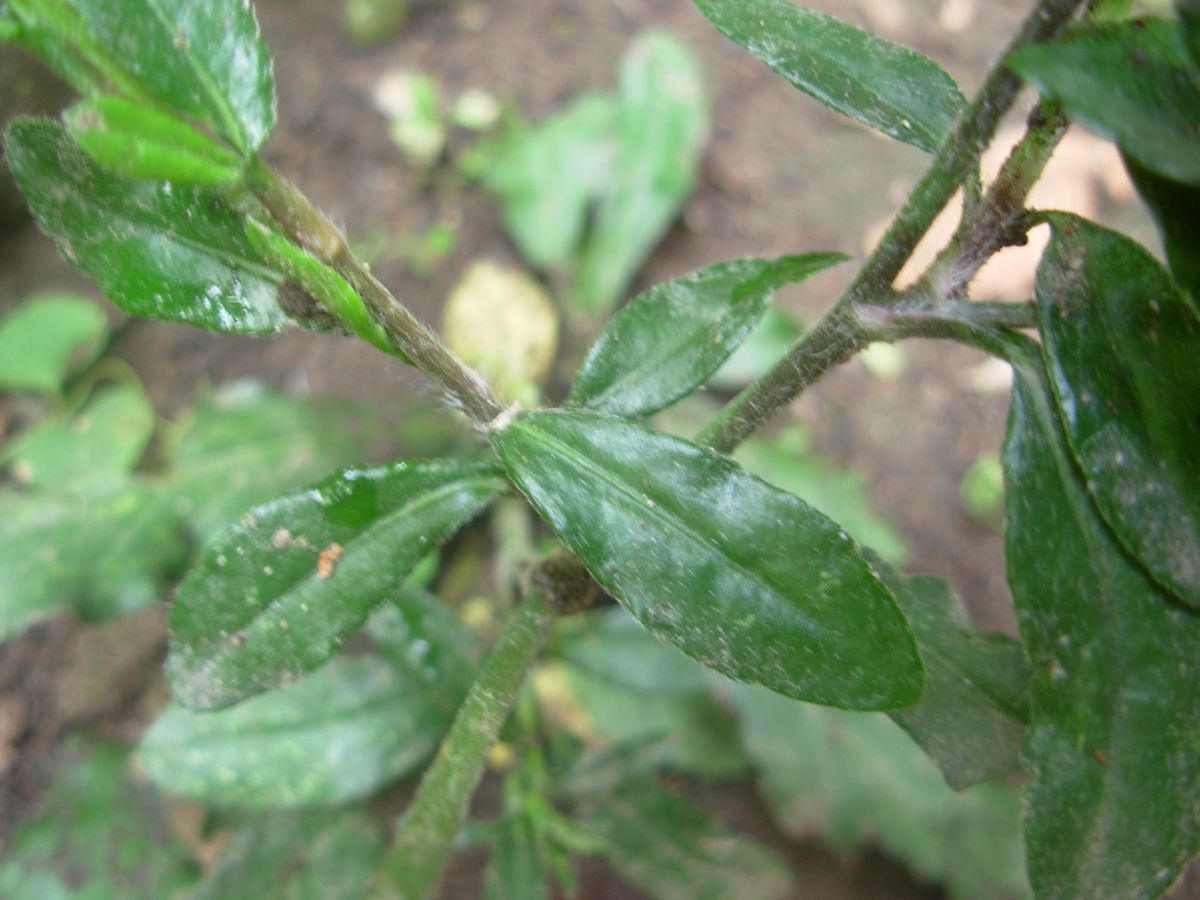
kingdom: Plantae
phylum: Tracheophyta
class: Magnoliopsida
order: Asterales
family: Asteraceae
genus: Pseudelephantopus
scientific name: Pseudelephantopus spicatus
